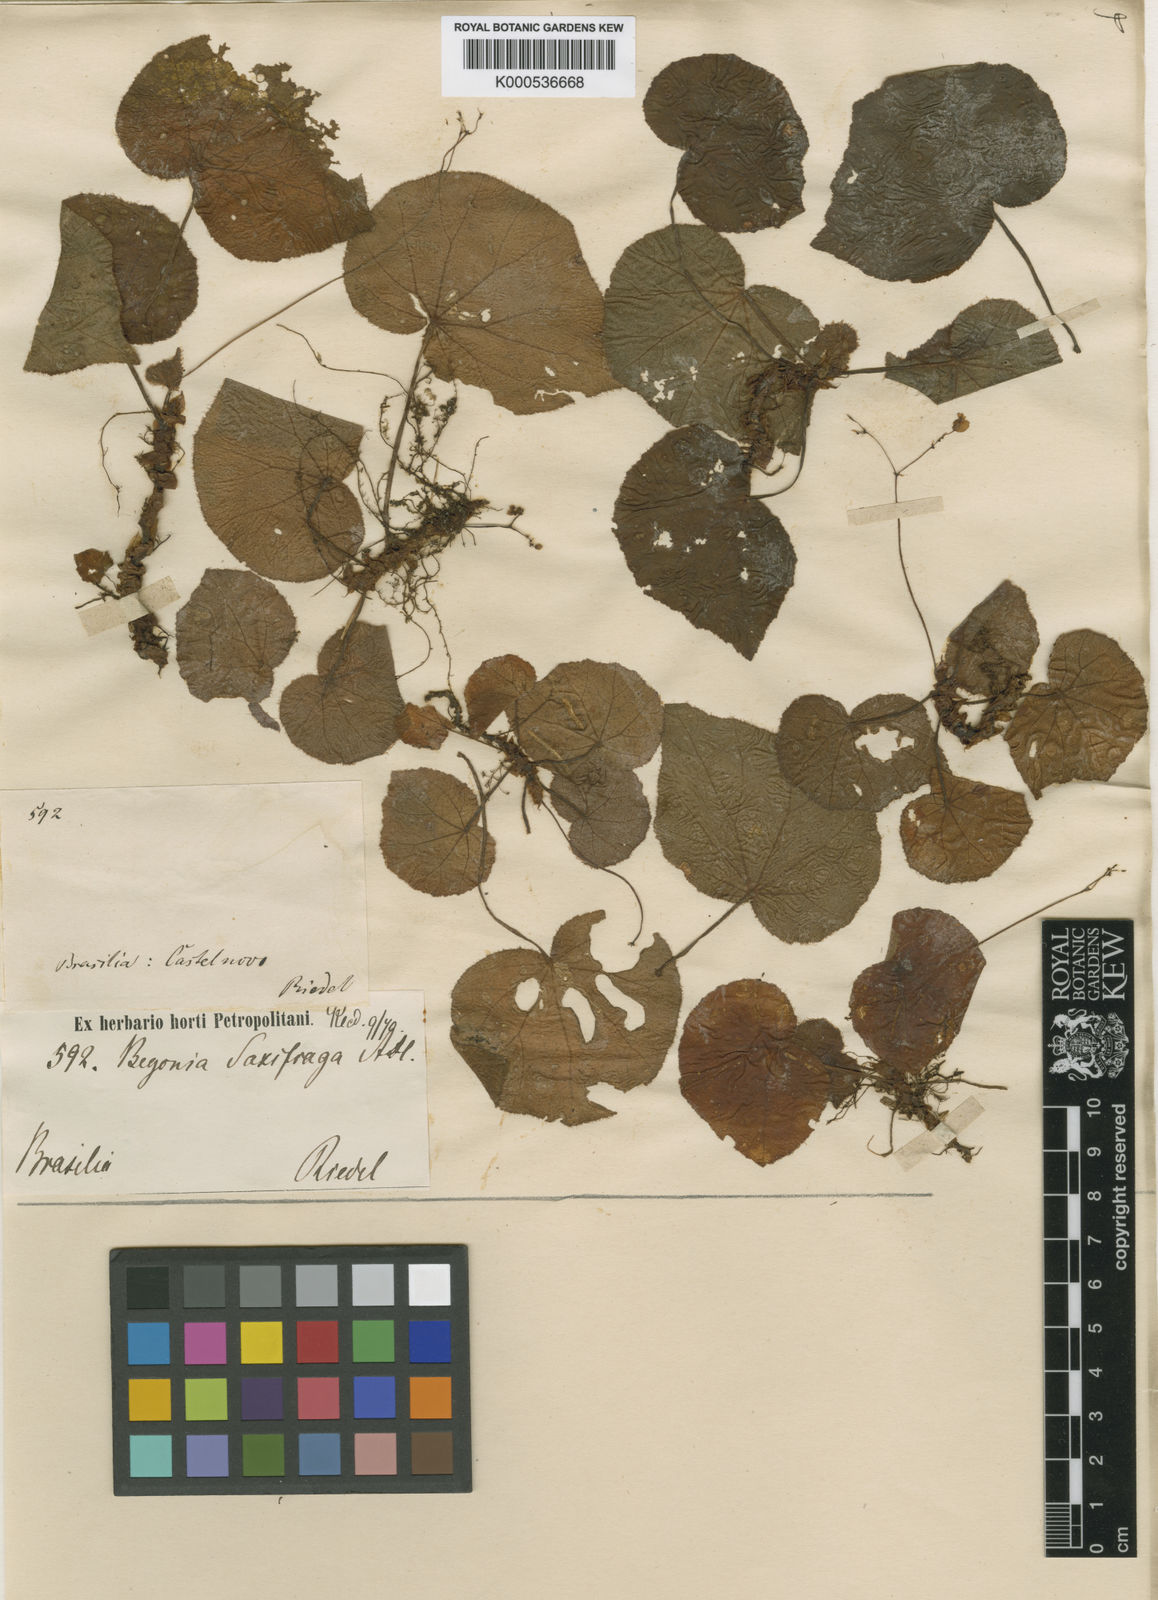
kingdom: Plantae
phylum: Tracheophyta
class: Magnoliopsida
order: Cucurbitales
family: Begoniaceae
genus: Begonia
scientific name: Begonia saxifraga
